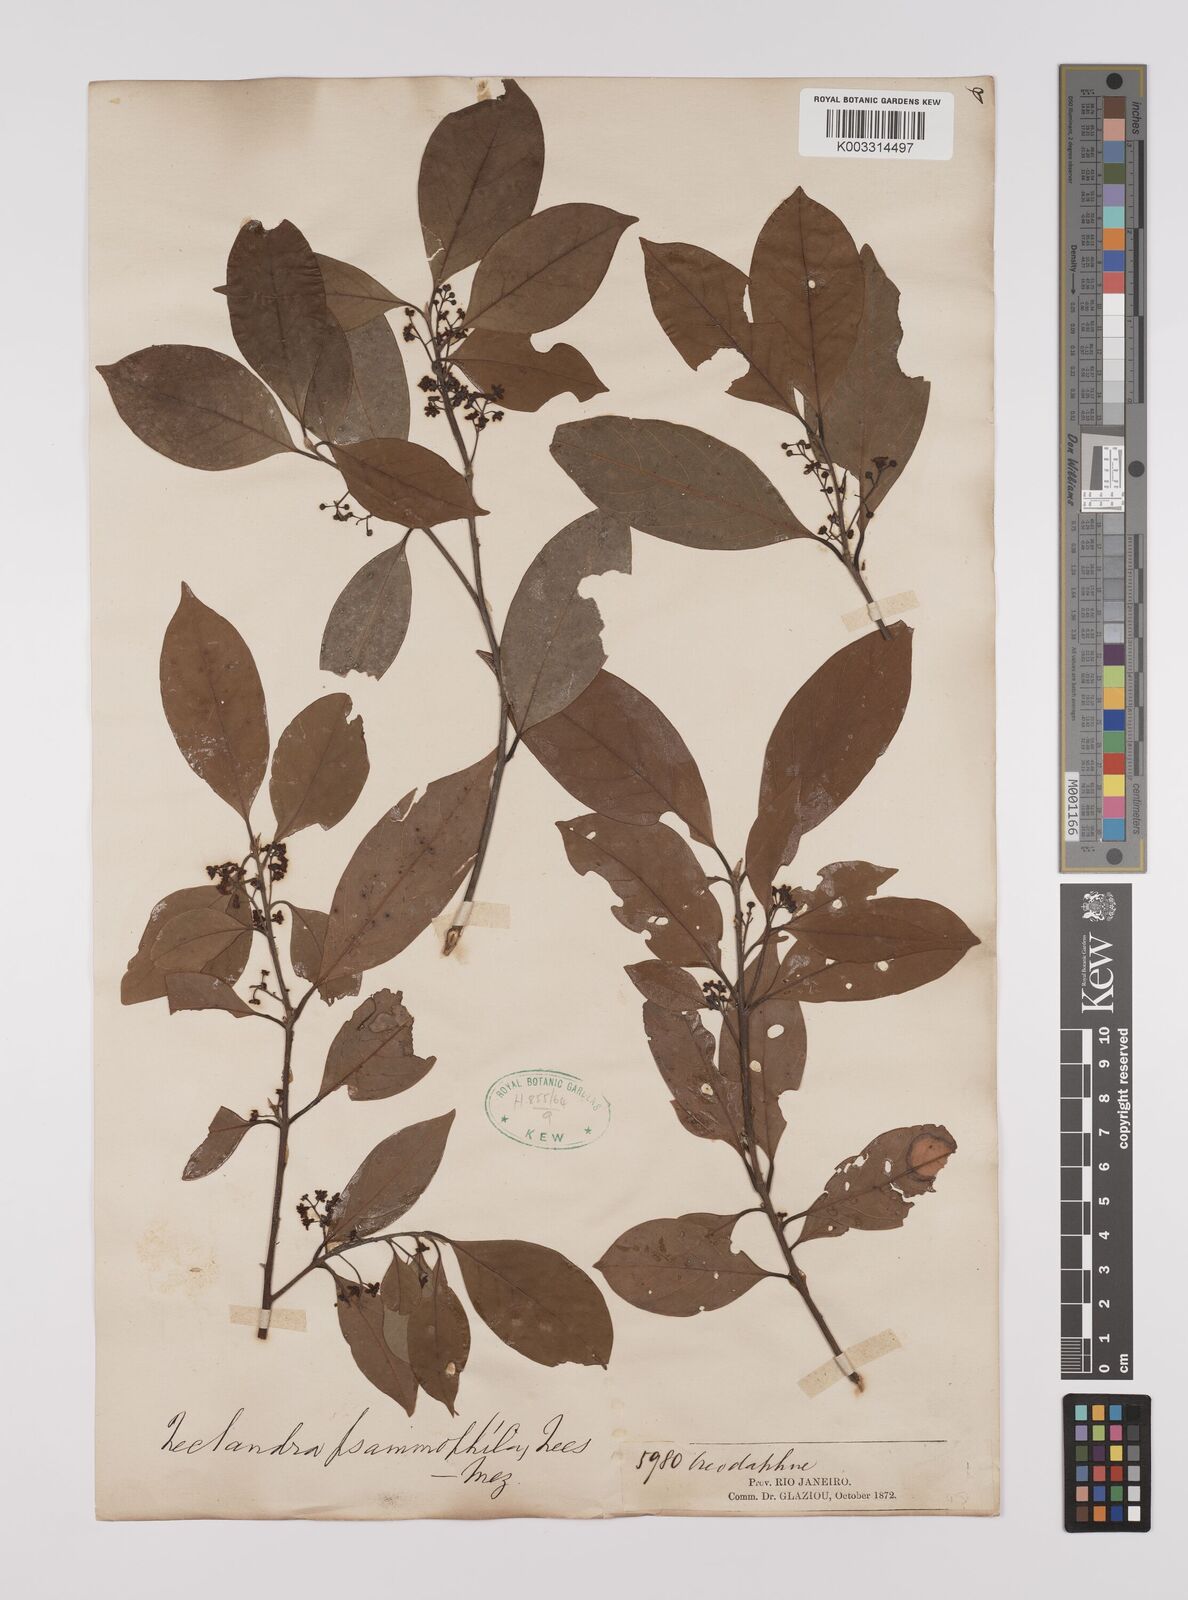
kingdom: Plantae
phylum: Tracheophyta
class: Magnoliopsida
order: Laurales
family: Lauraceae
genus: Nectandra
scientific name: Nectandra psammophila
